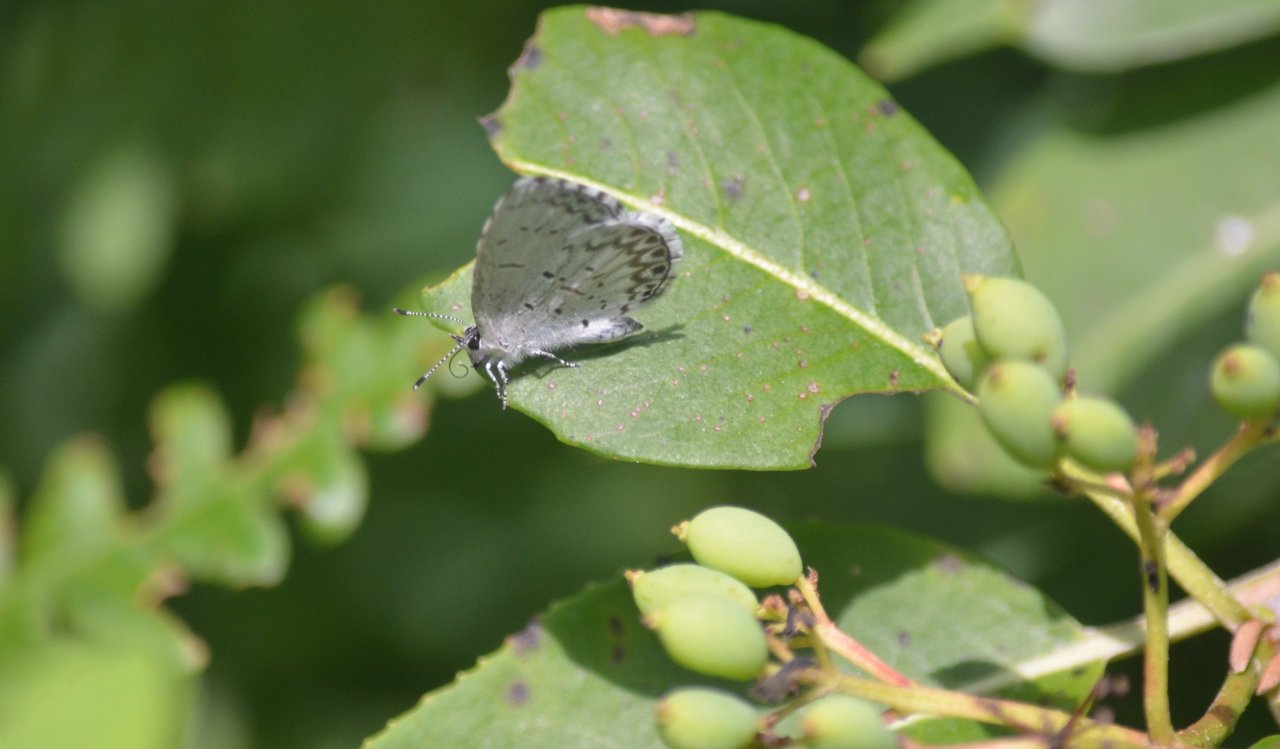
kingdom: Animalia
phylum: Arthropoda
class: Insecta
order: Lepidoptera
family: Lycaenidae
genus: Celastrina
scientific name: Celastrina lucia
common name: Northern Spring Azure
